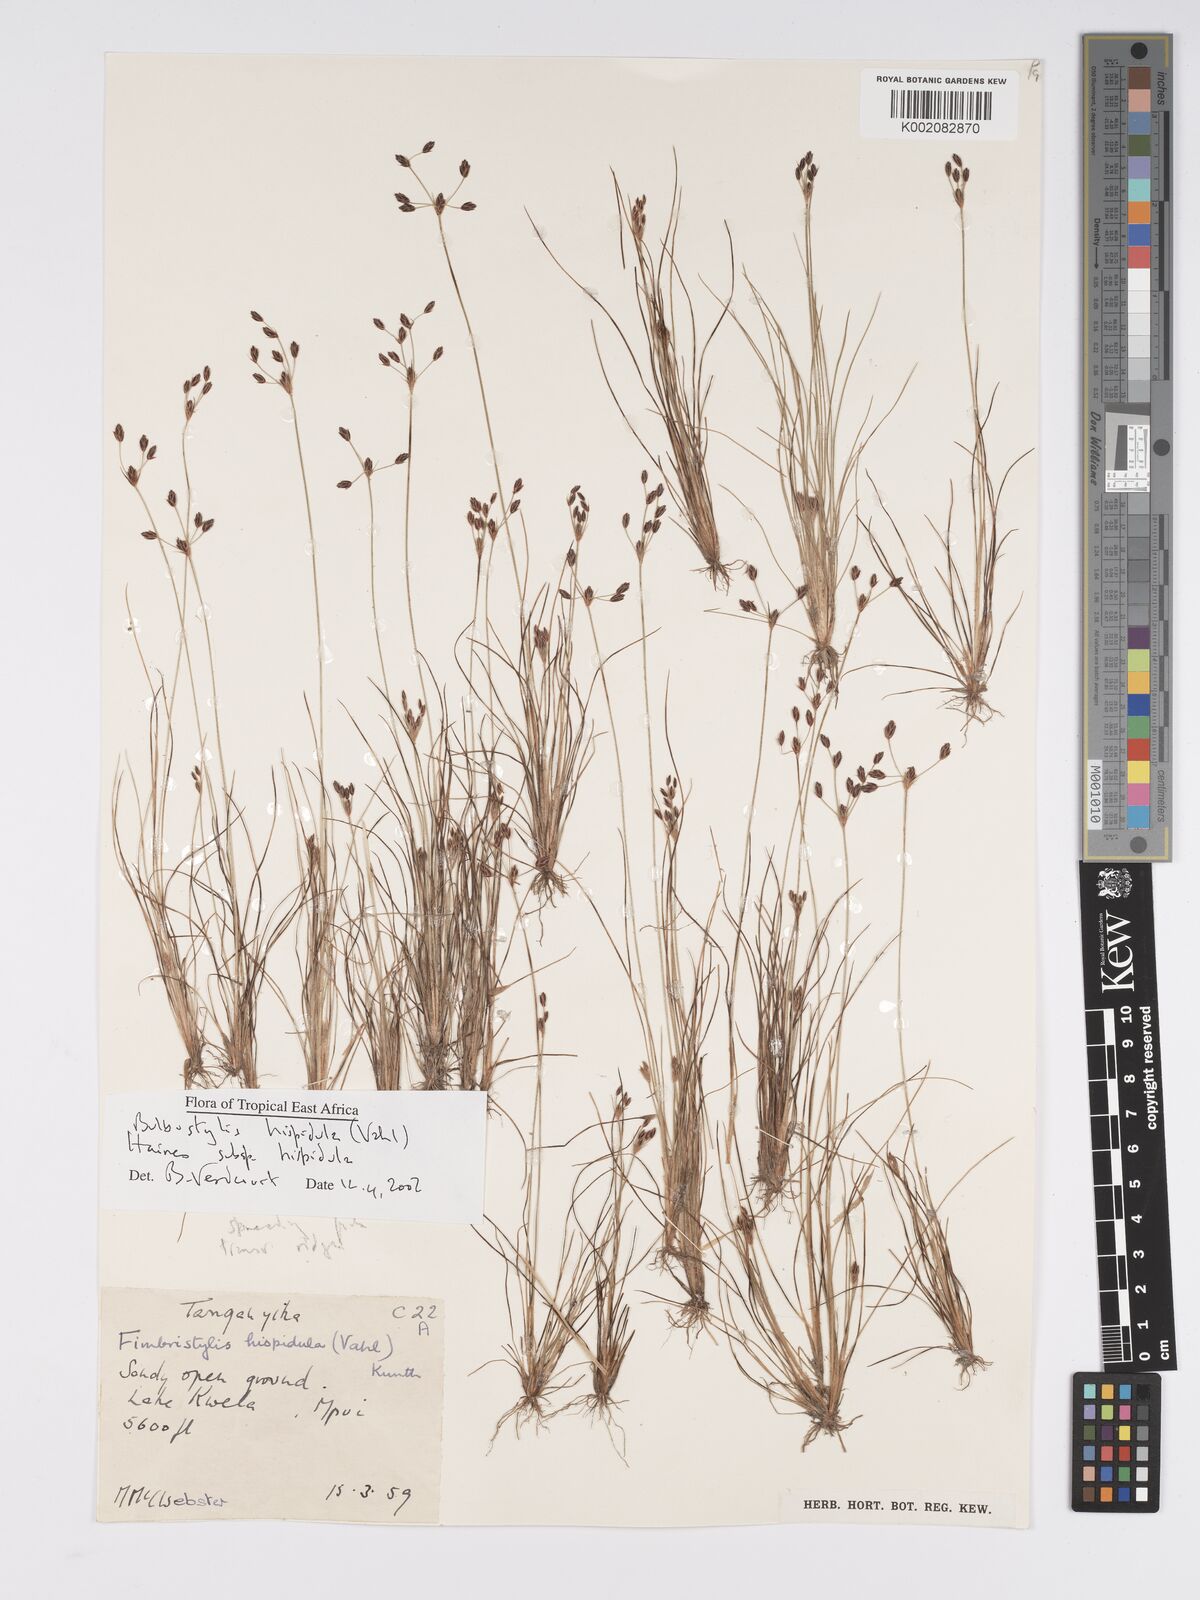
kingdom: Plantae
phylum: Tracheophyta
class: Liliopsida
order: Poales
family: Cyperaceae
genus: Bulbostylis
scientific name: Bulbostylis hispidula
